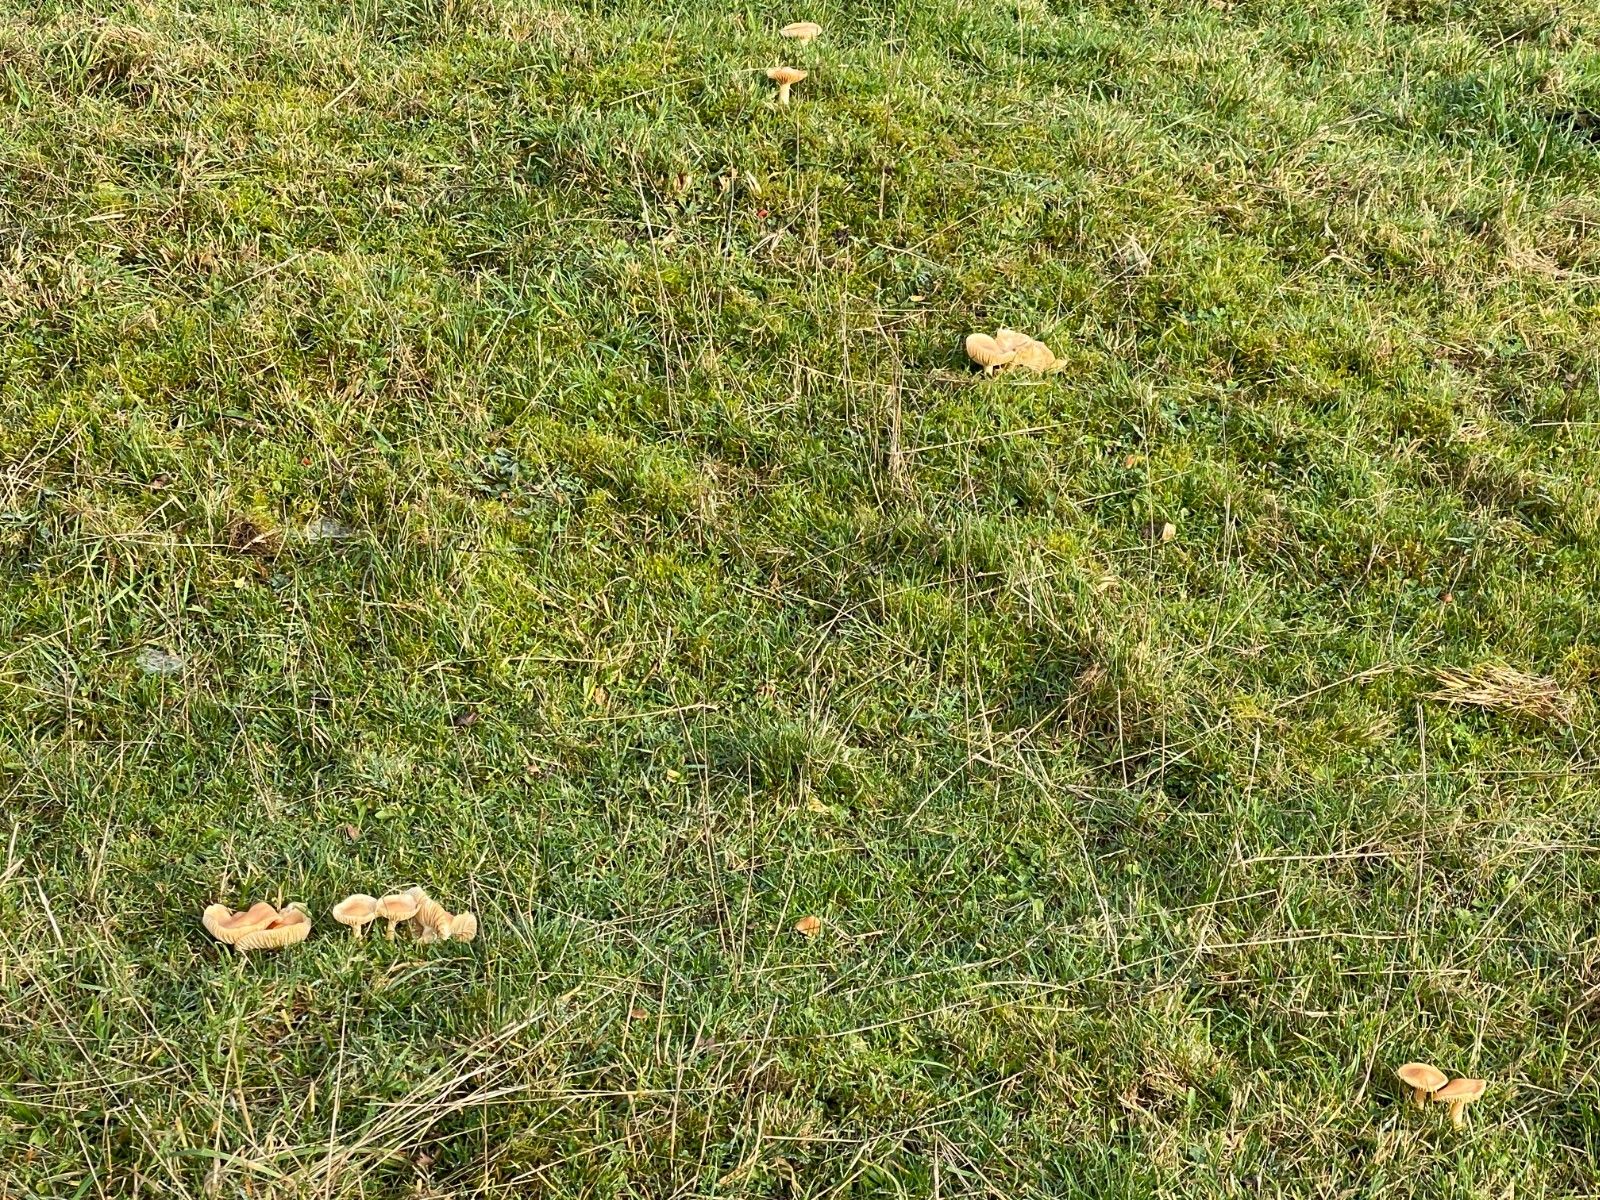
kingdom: Fungi
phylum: Basidiomycota
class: Agaricomycetes
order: Agaricales
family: Hygrophoraceae
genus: Cuphophyllus
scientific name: Cuphophyllus pratensis
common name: eng-vokshat
